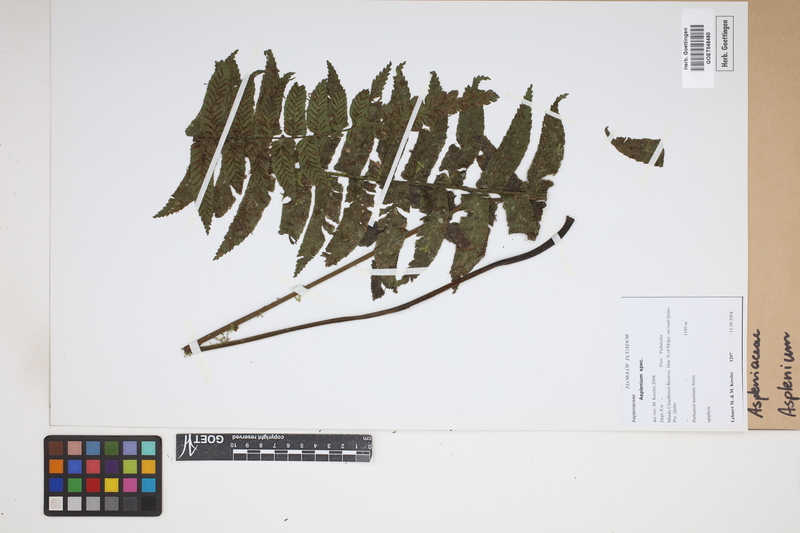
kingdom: Plantae
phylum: Tracheophyta
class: Polypodiopsida
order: Polypodiales
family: Aspleniaceae
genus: Asplenium
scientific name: Asplenium
